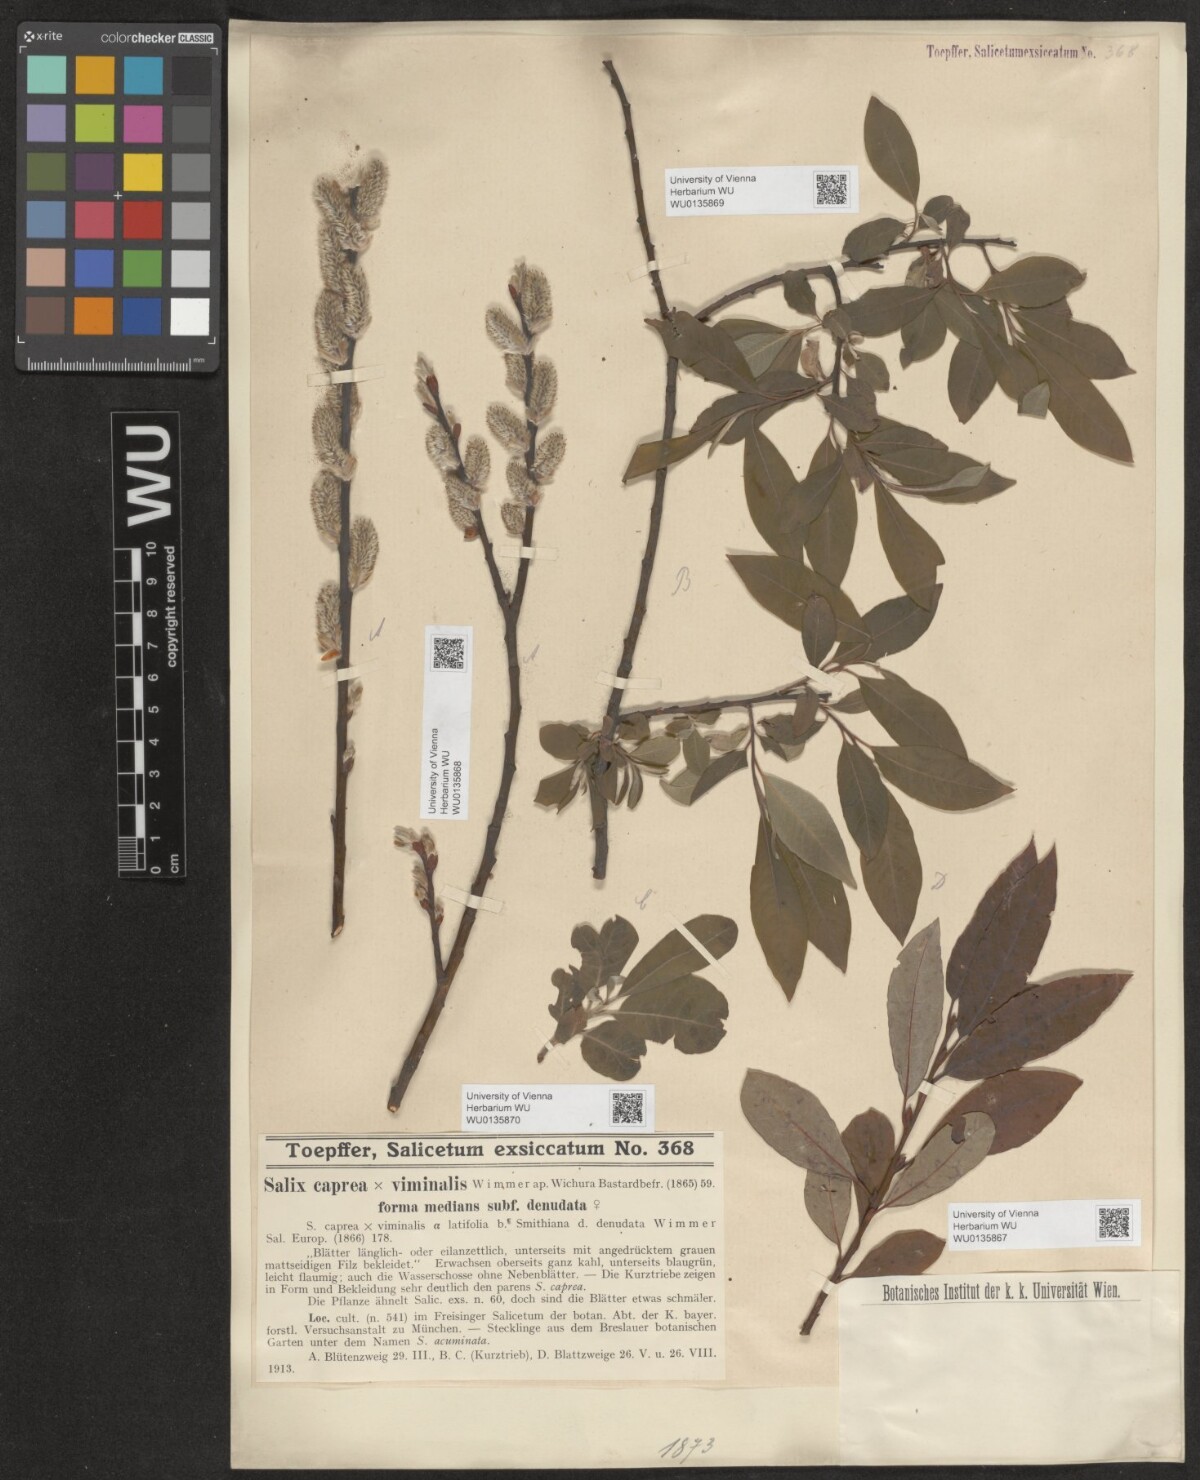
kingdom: Plantae
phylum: Tracheophyta
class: Magnoliopsida
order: Malpighiales
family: Salicaceae
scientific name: Salicaceae
